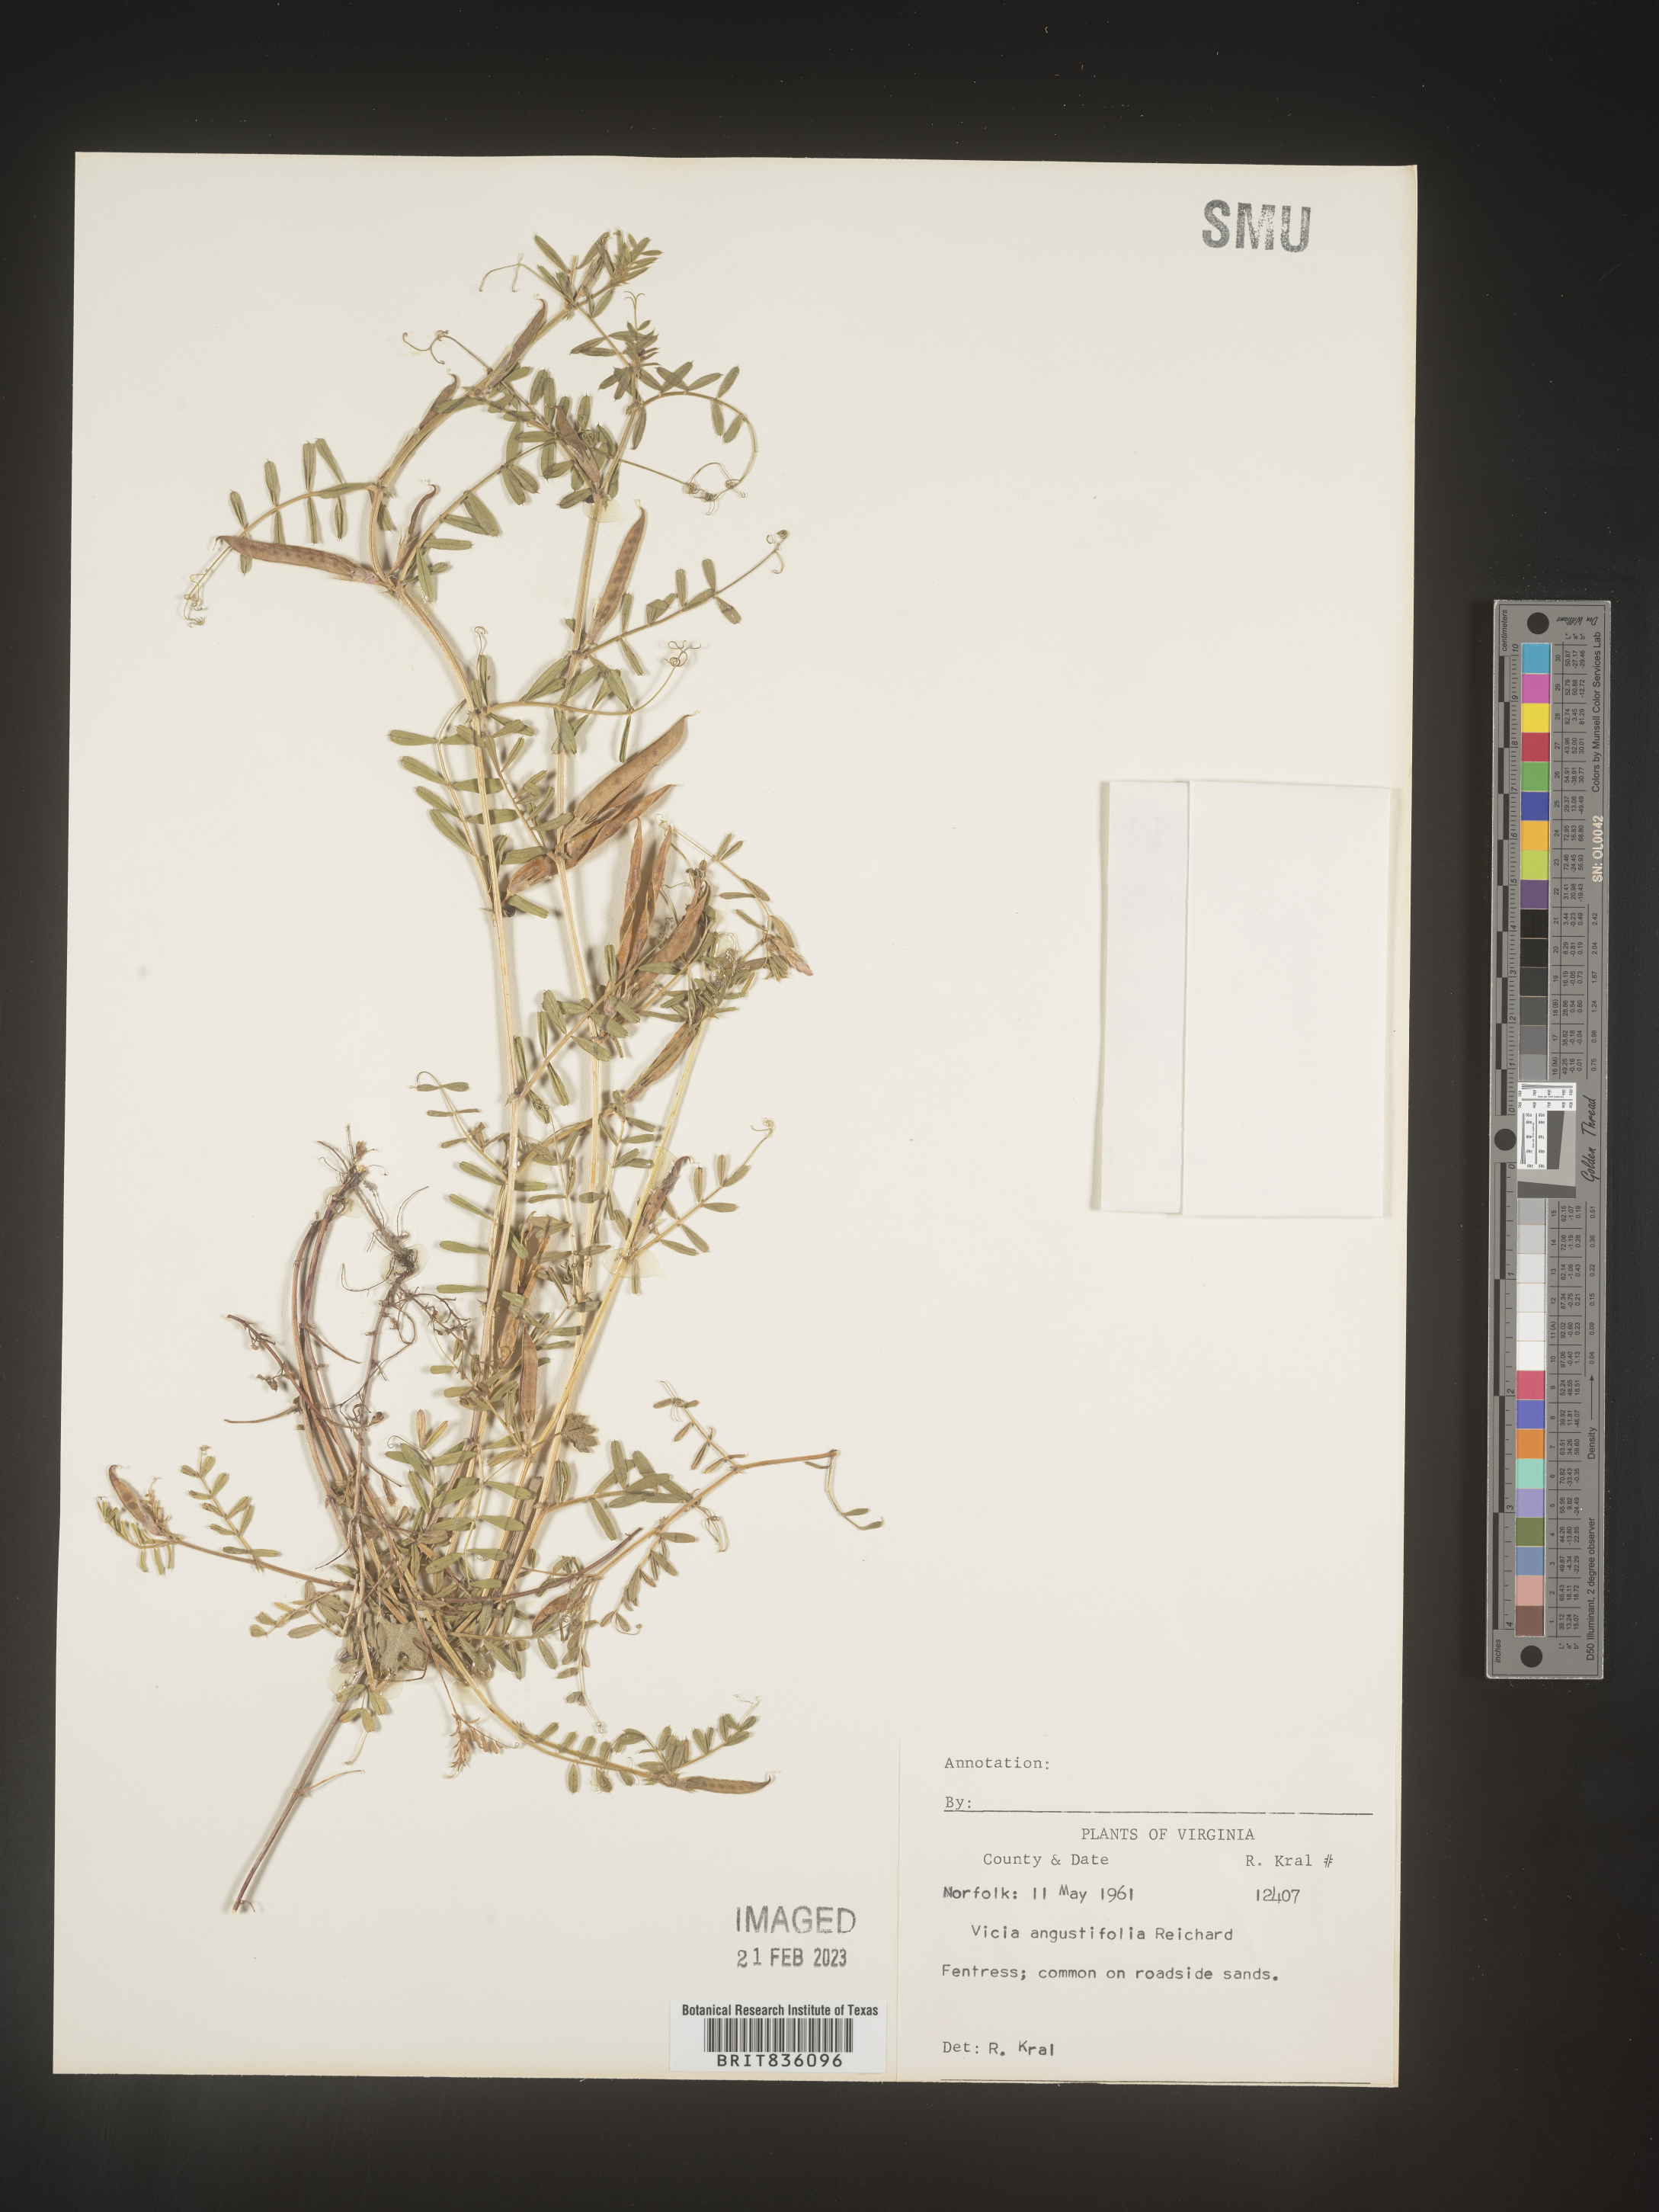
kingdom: Plantae
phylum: Tracheophyta
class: Magnoliopsida
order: Fabales
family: Fabaceae
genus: Vicia
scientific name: Vicia sativa
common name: Garden vetch
